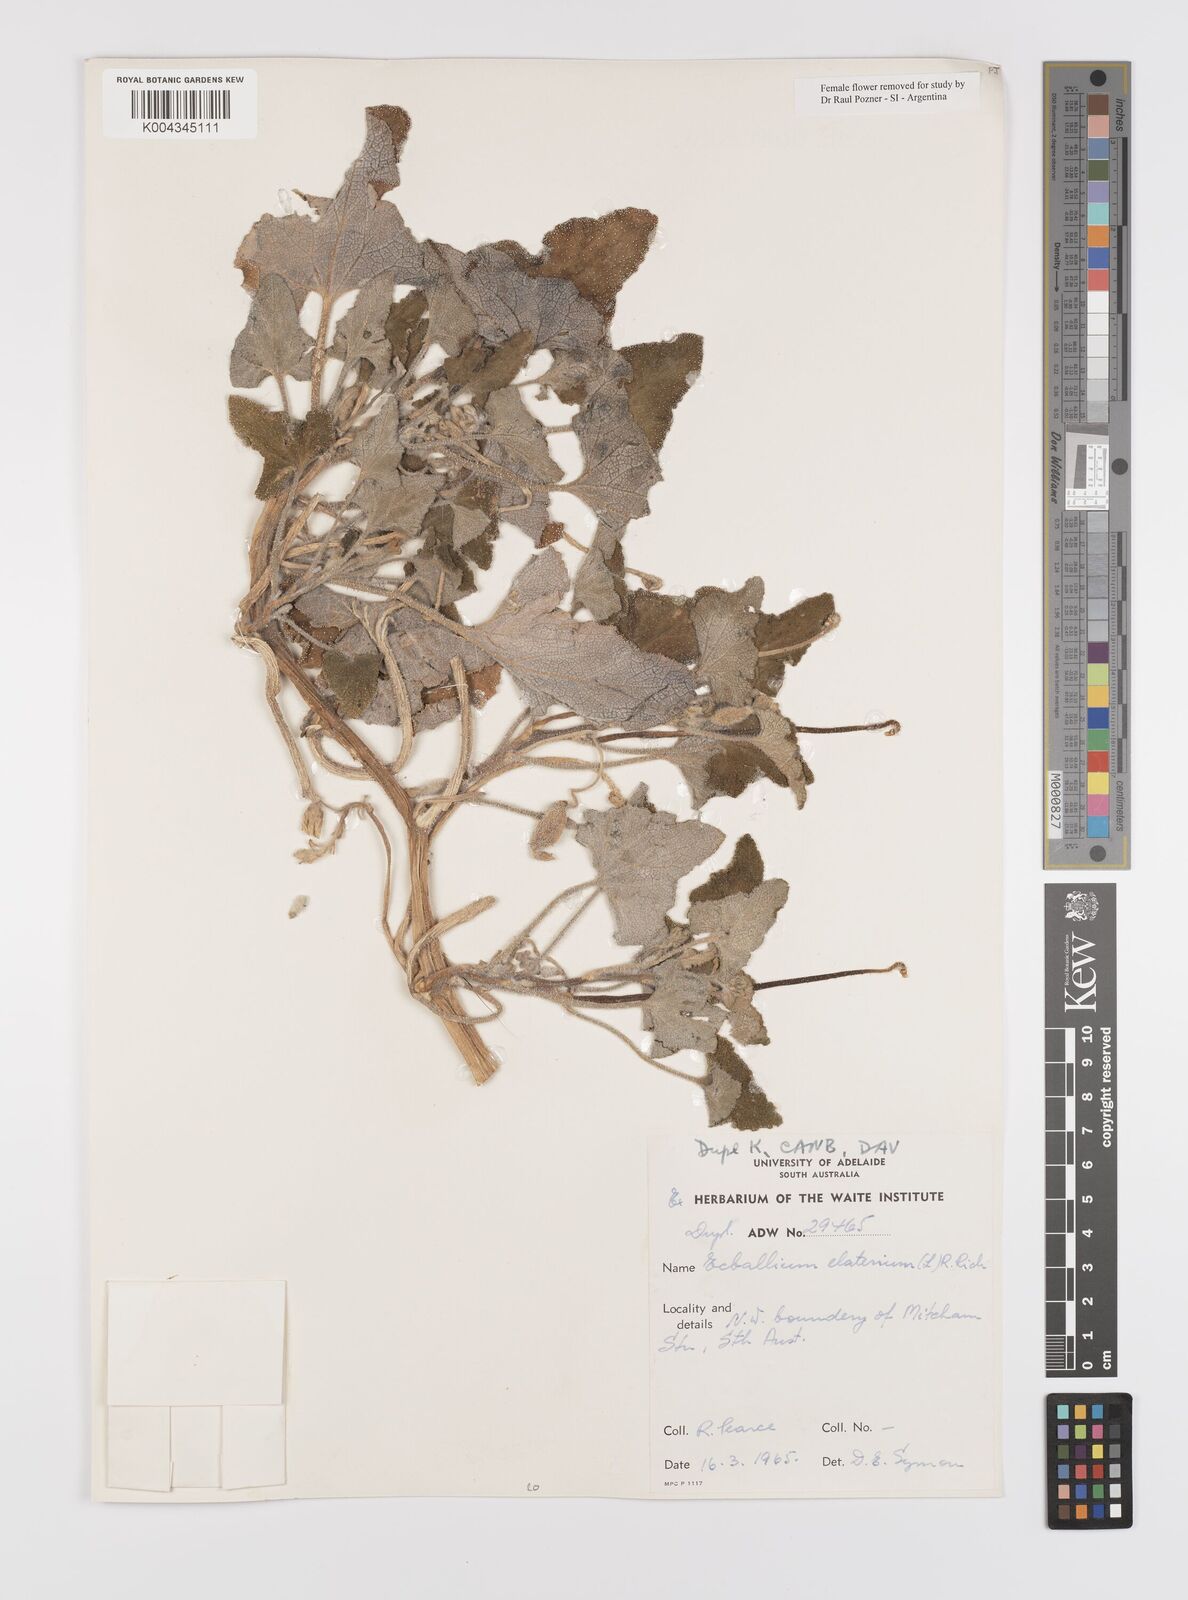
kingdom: Plantae
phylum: Tracheophyta
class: Magnoliopsida
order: Cucurbitales
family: Cucurbitaceae
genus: Ecballium
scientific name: Ecballium elaterium
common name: Squirting cucumber
